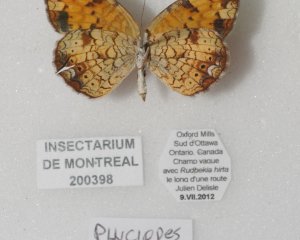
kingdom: Animalia
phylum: Arthropoda
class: Insecta
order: Lepidoptera
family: Nymphalidae
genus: Phyciodes
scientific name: Phyciodes tharos
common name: Pearl Crescent
